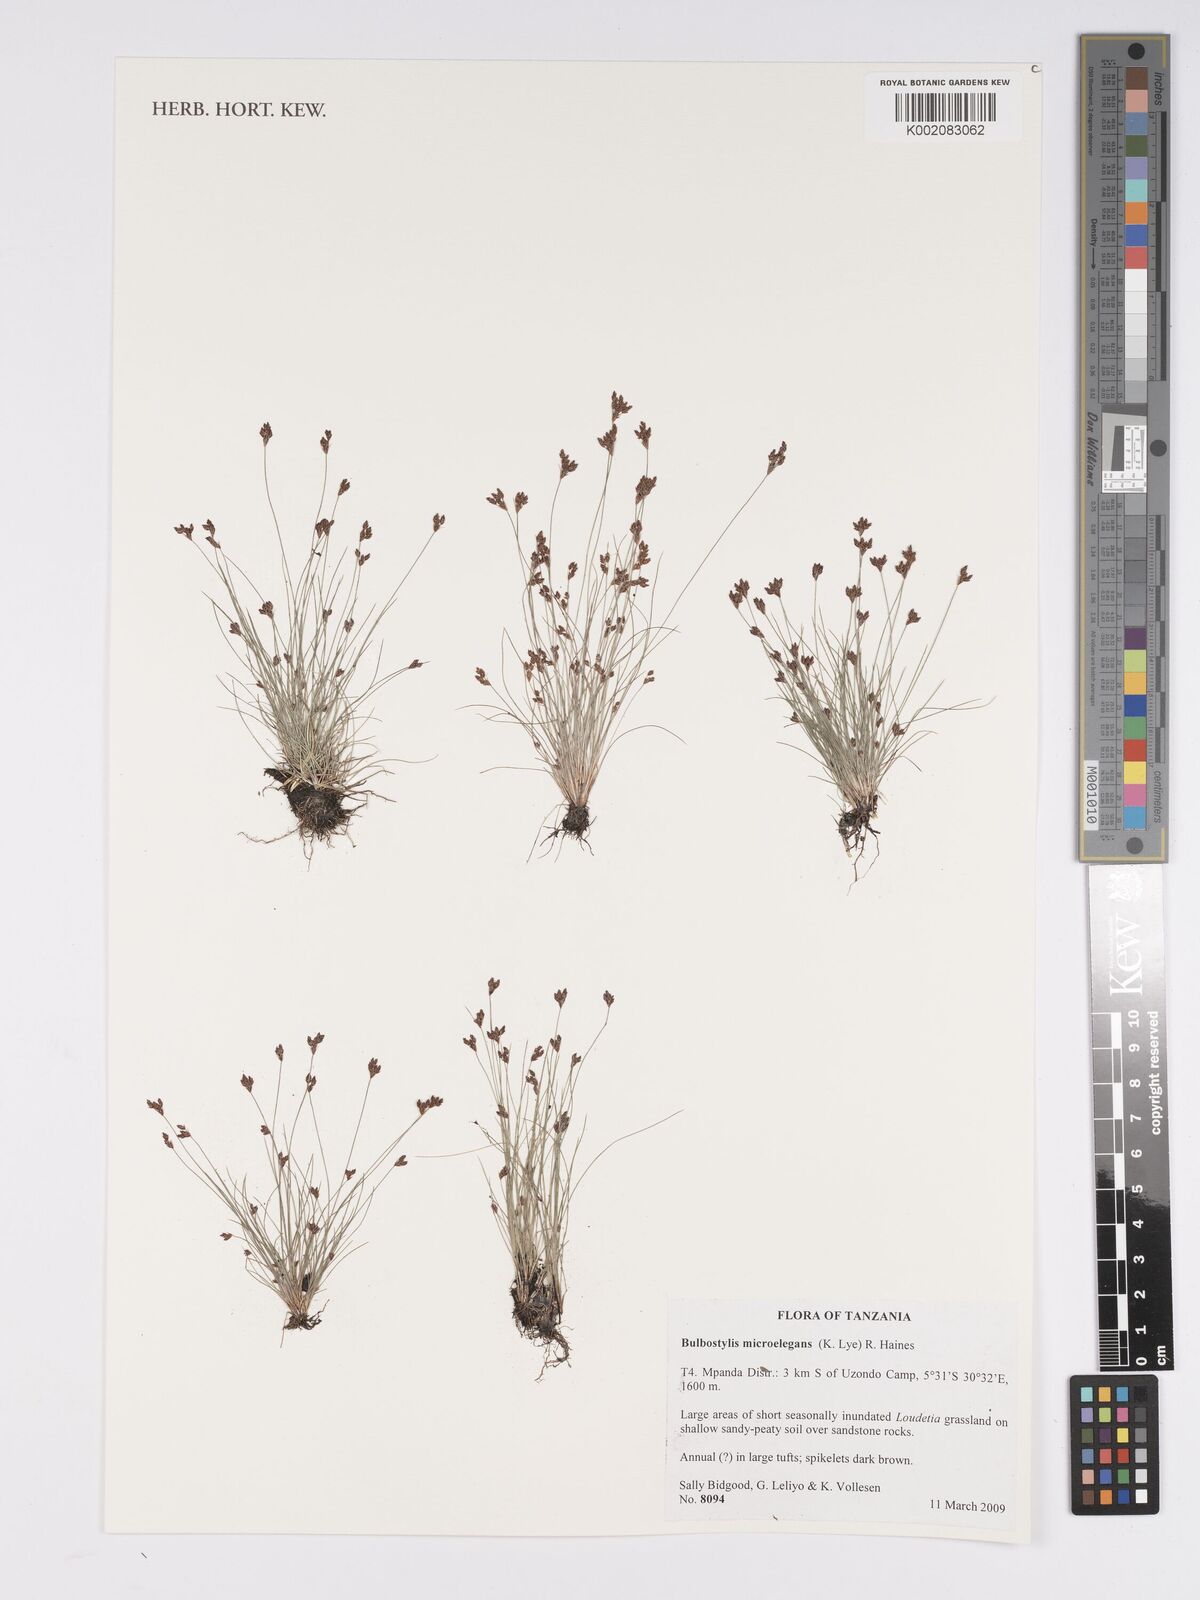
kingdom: Plantae
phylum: Tracheophyta
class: Liliopsida
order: Poales
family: Cyperaceae
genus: Bulbostylis
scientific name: Bulbostylis microelegans
